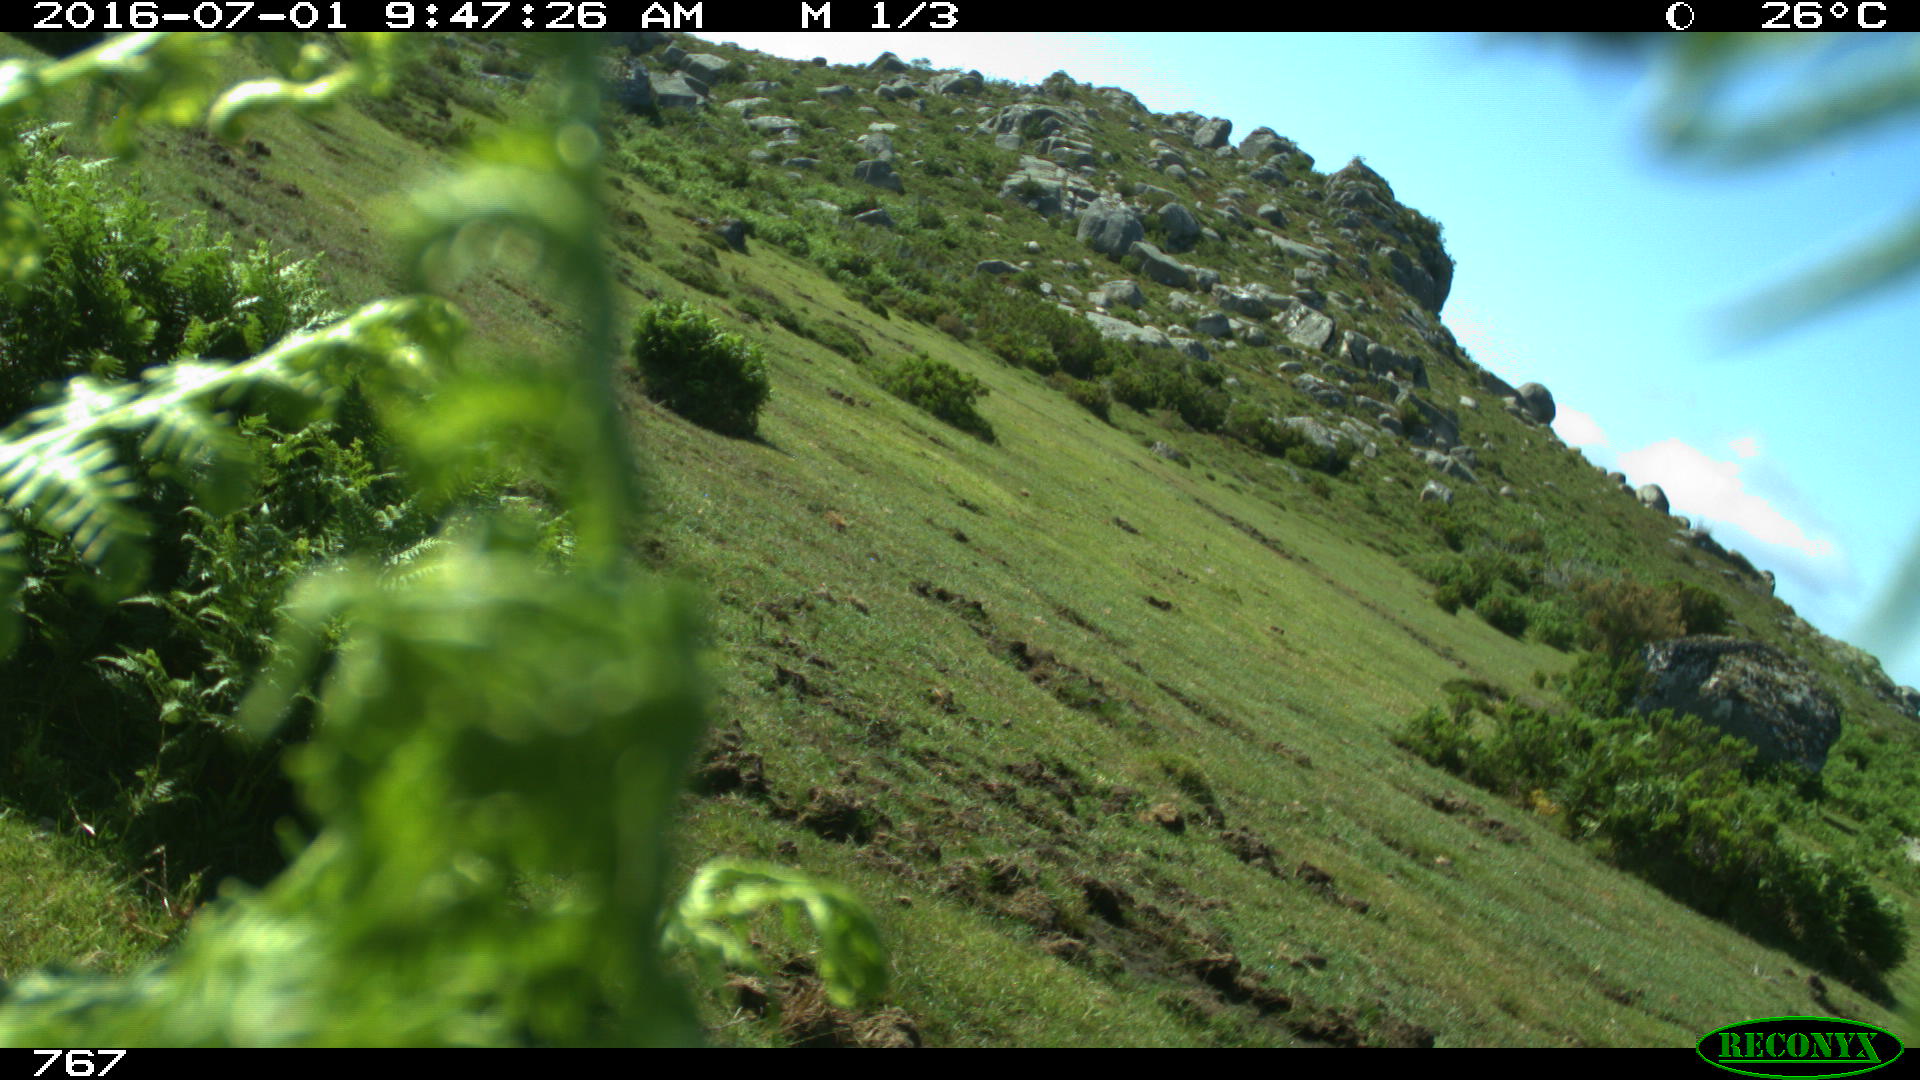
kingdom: Animalia
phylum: Chordata
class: Mammalia
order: Artiodactyla
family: Bovidae
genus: Bos
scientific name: Bos taurus
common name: Domesticated cattle
